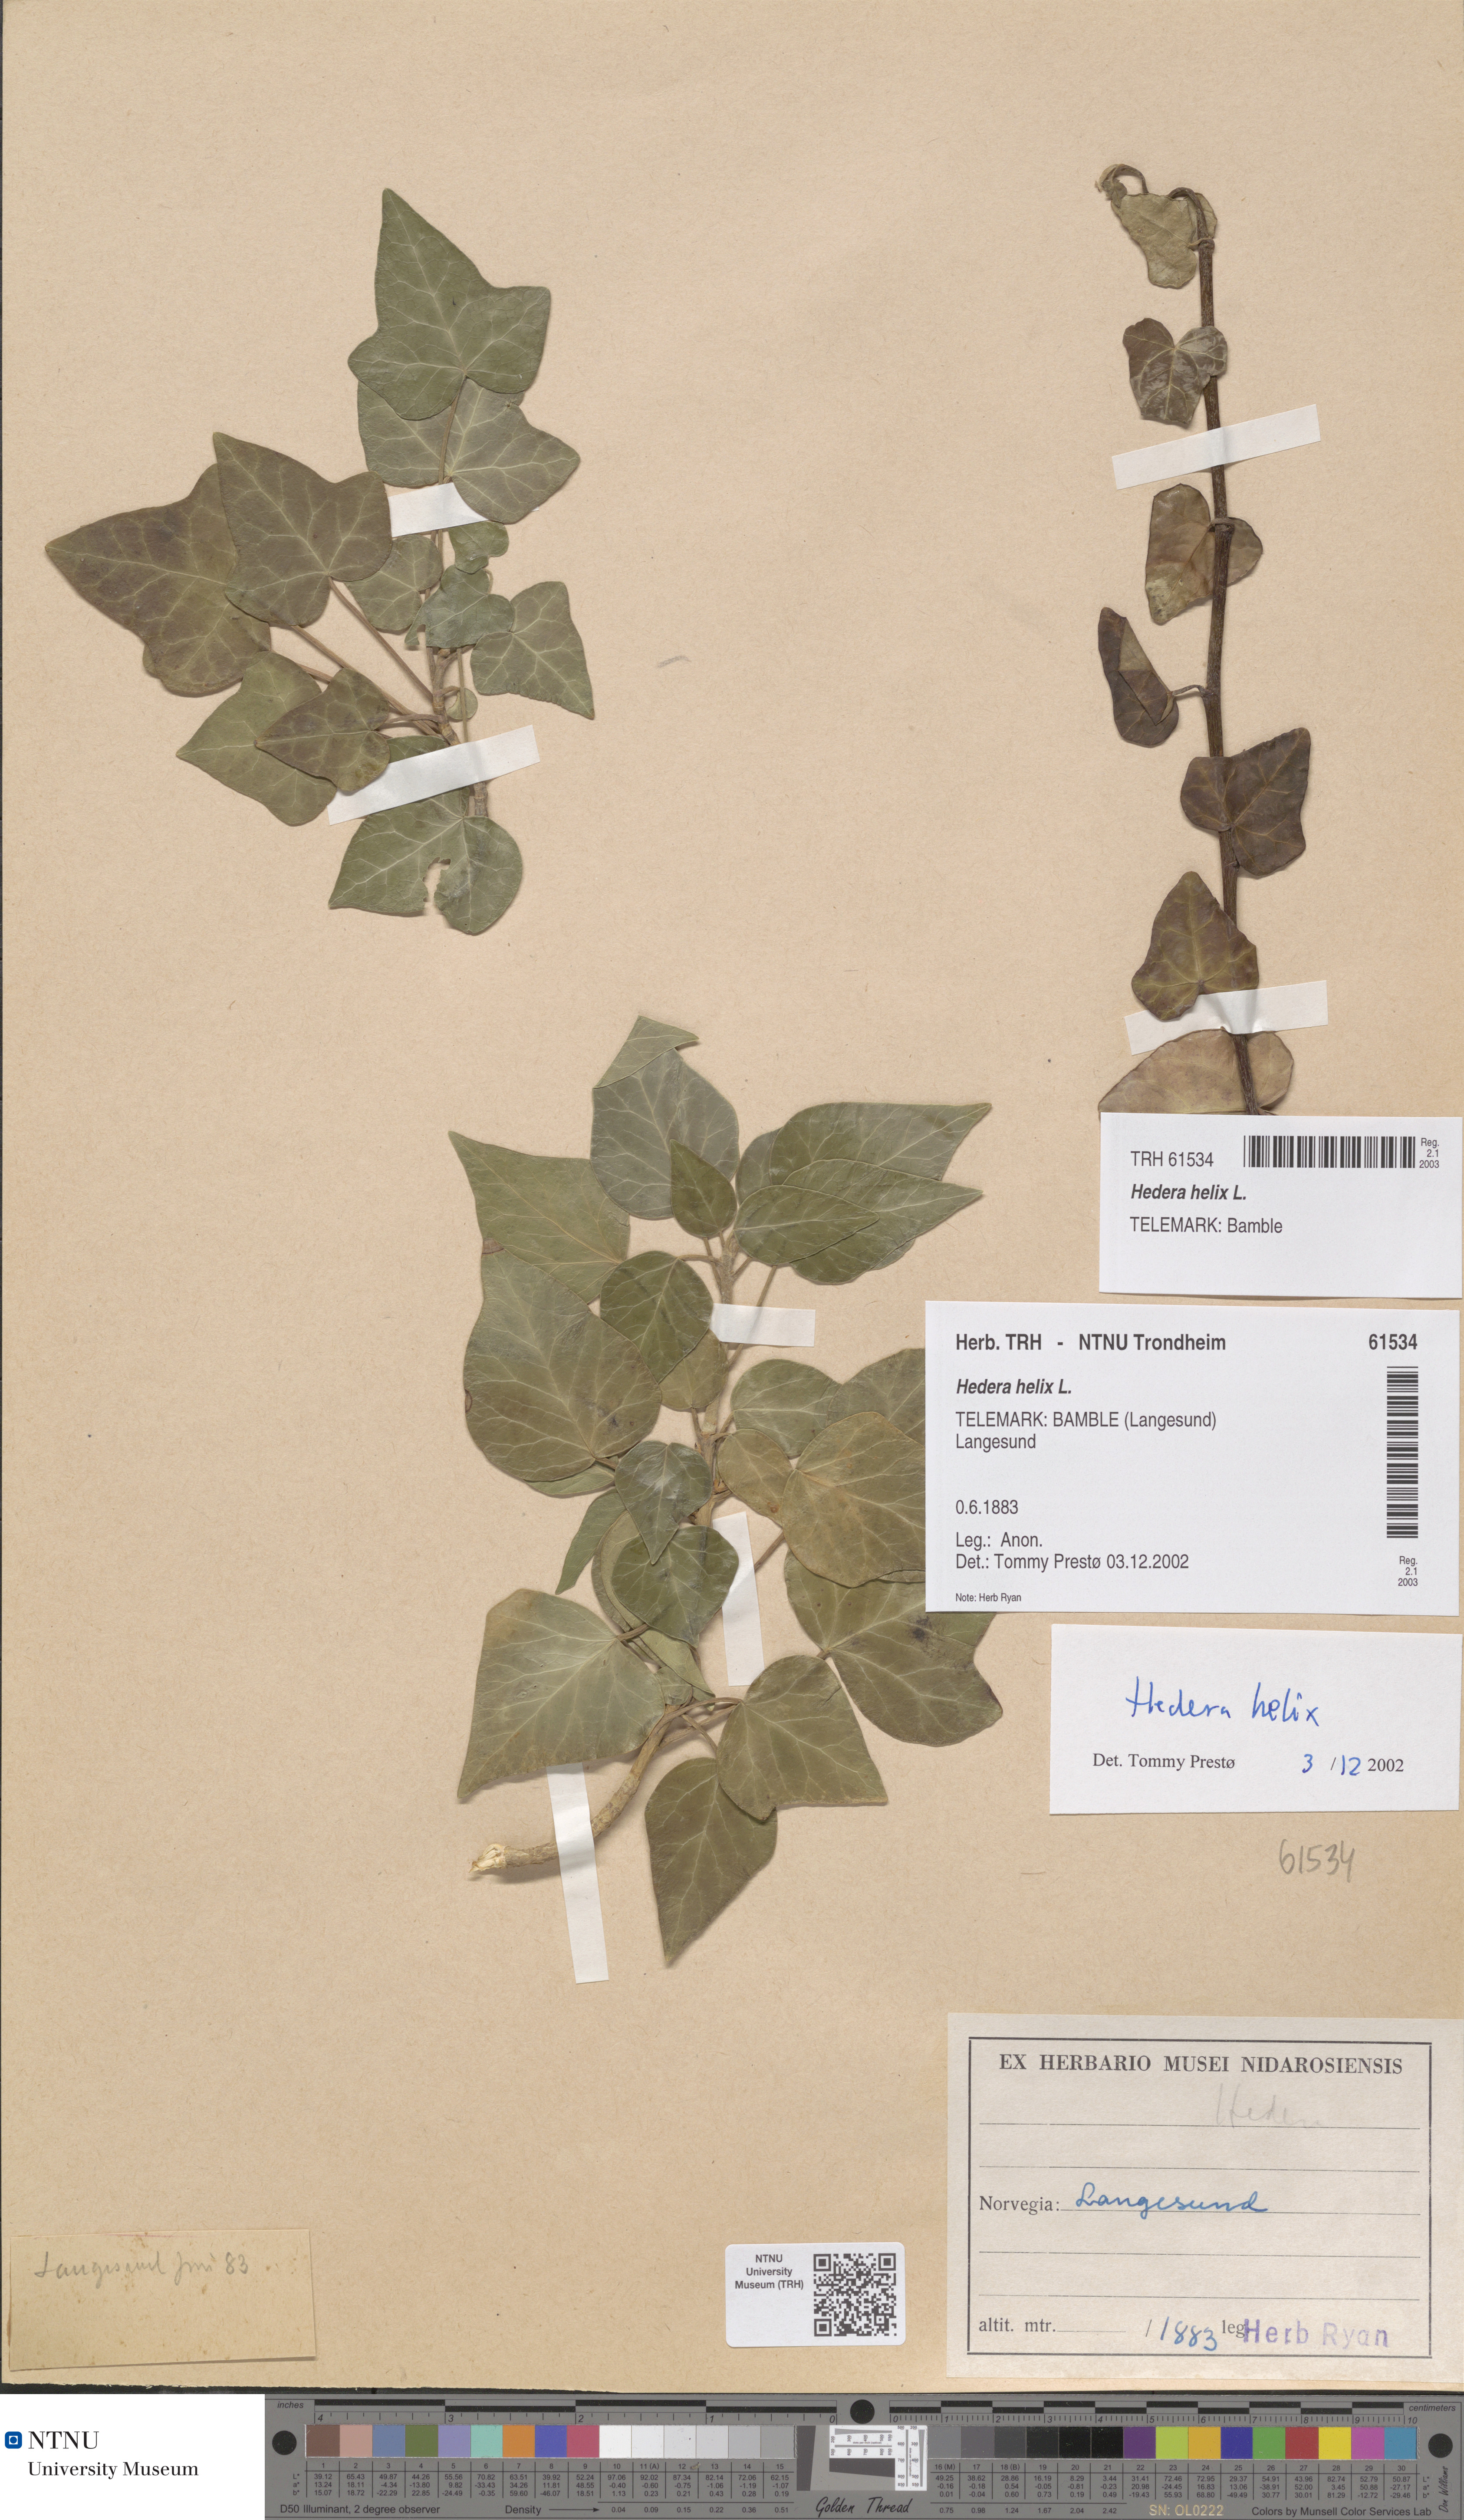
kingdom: Plantae
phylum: Tracheophyta
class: Magnoliopsida
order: Apiales
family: Araliaceae
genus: Hedera
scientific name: Hedera helix
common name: Ivy
